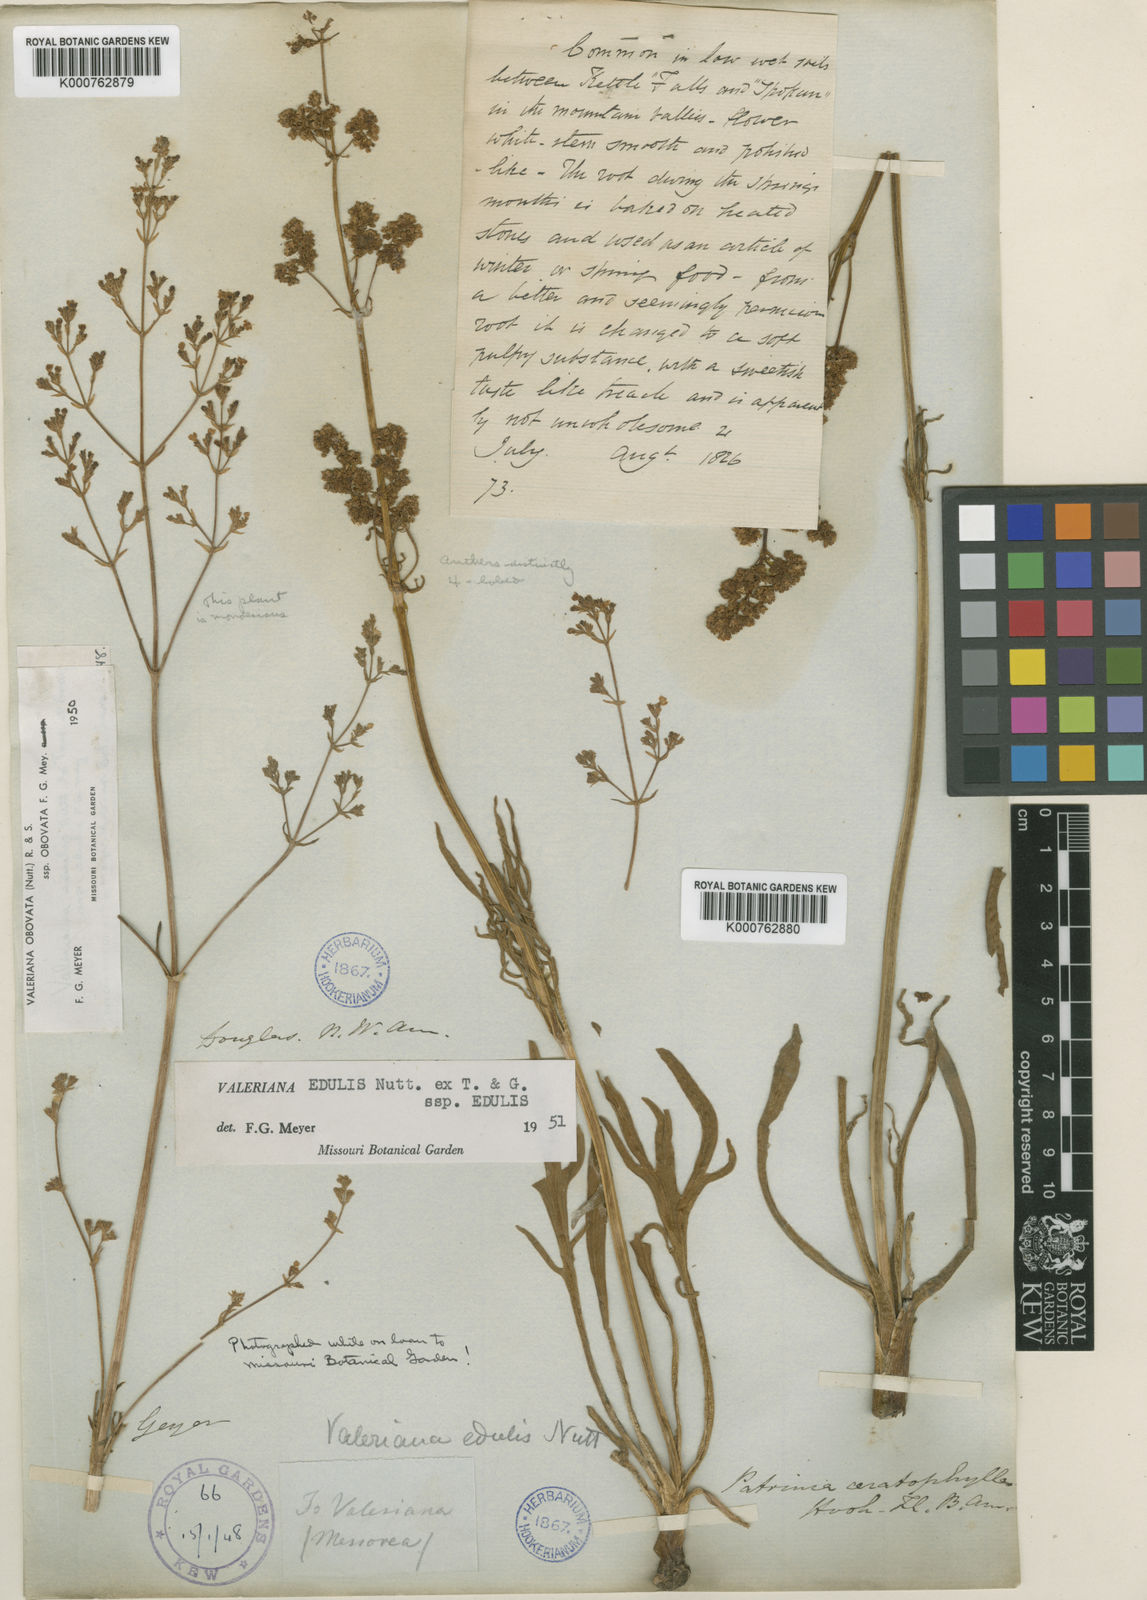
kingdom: Plantae
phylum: Tracheophyta
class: Magnoliopsida
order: Dipsacales
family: Caprifoliaceae
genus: Valeriana
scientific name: Valeriana edulis
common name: Taproot valerian
